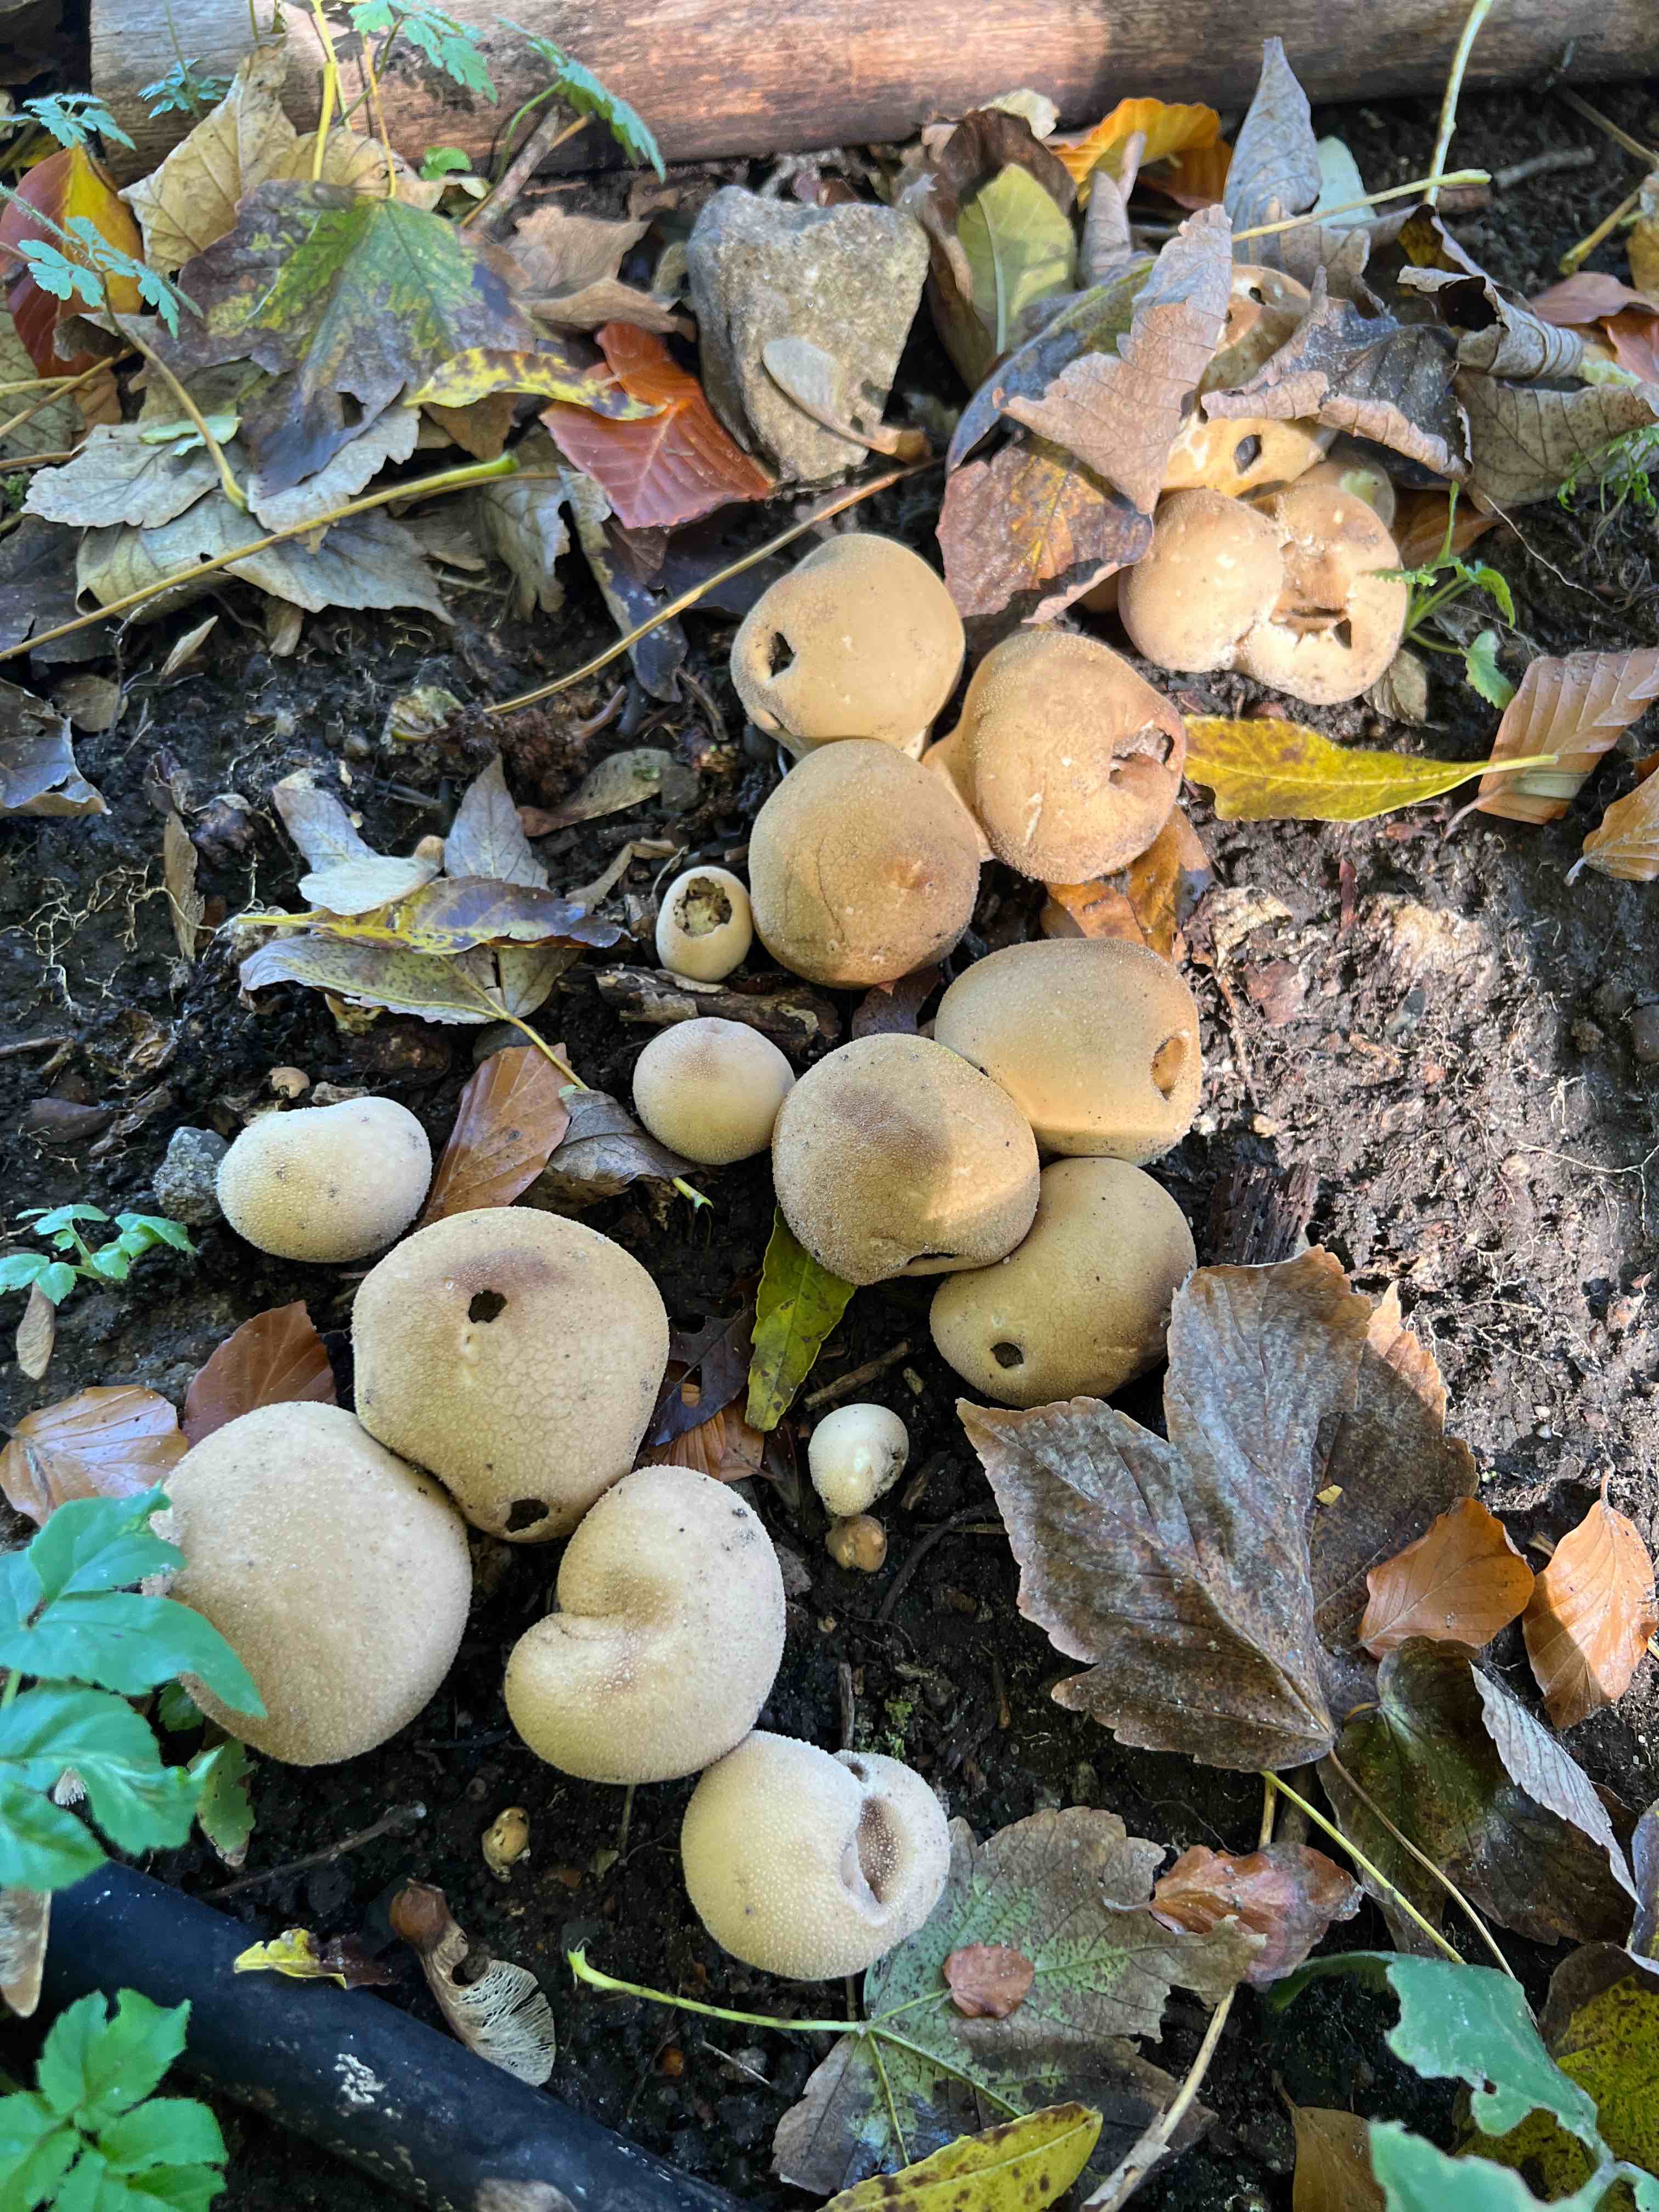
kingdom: Fungi
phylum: Basidiomycota
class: Agaricomycetes
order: Agaricales
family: Lycoperdaceae
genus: Apioperdon
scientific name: Apioperdon pyriforme
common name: pære-støvbold
